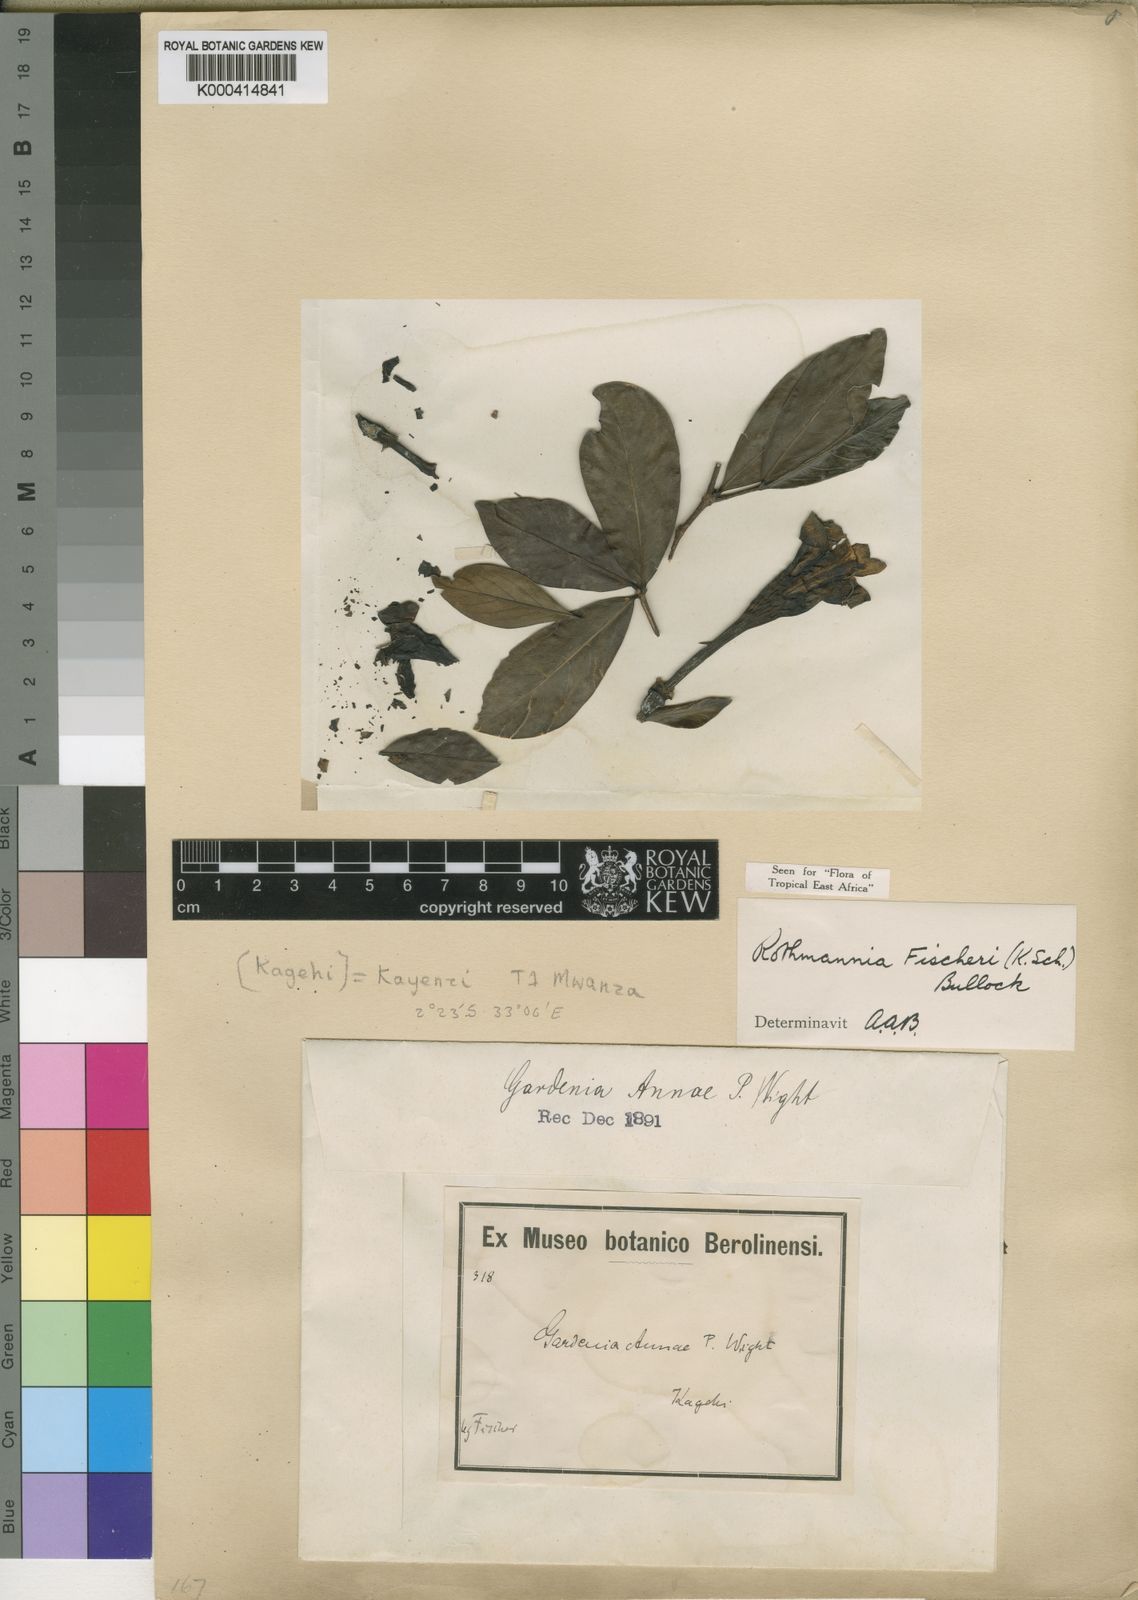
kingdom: Plantae
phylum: Tracheophyta
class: Magnoliopsida
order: Gentianales
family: Rubiaceae
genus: Rothmannia
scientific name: Rothmannia fischeri
